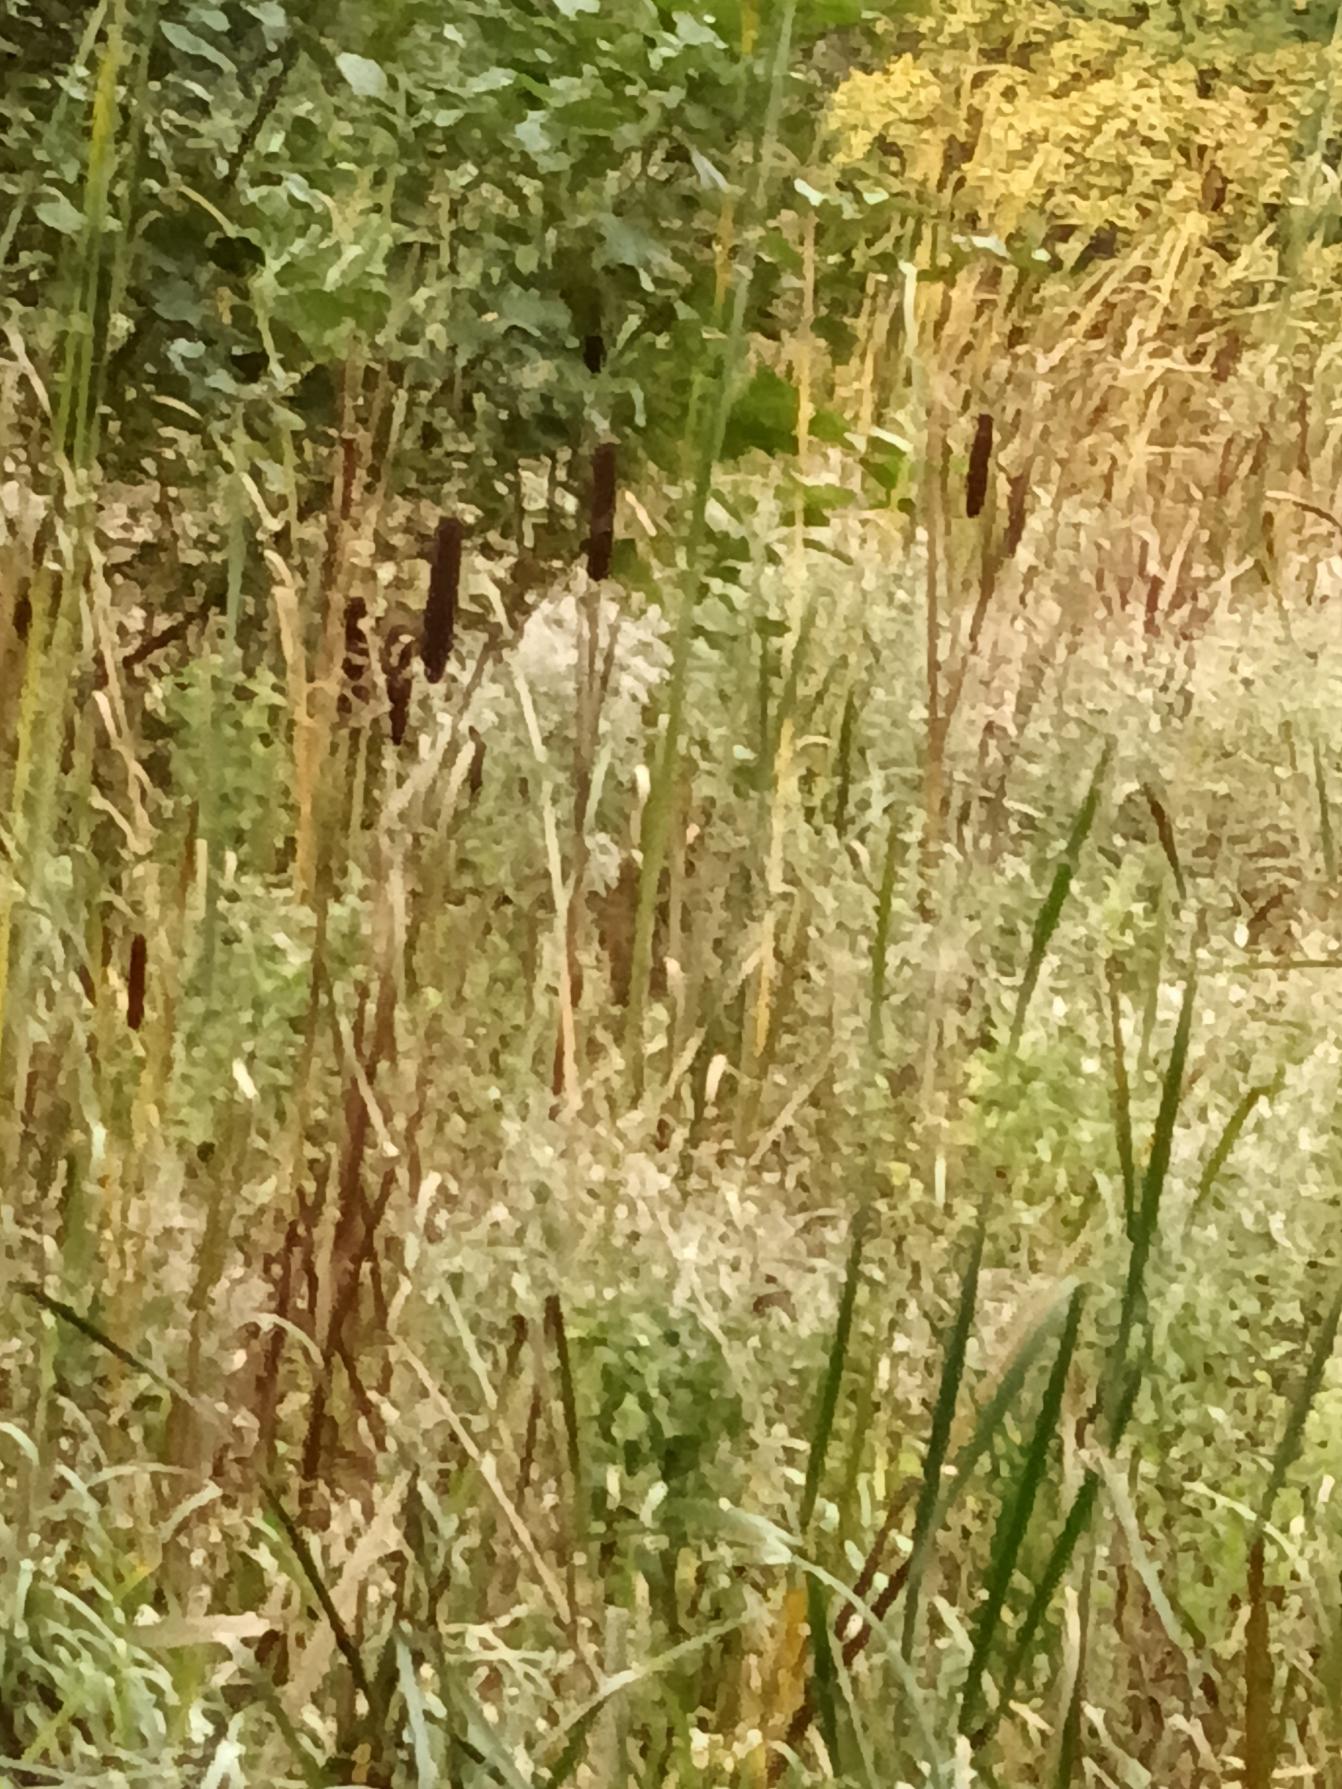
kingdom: Plantae
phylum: Tracheophyta
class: Liliopsida
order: Poales
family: Typhaceae
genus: Typha
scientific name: Typha latifolia
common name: Bredbladet dunhammer
